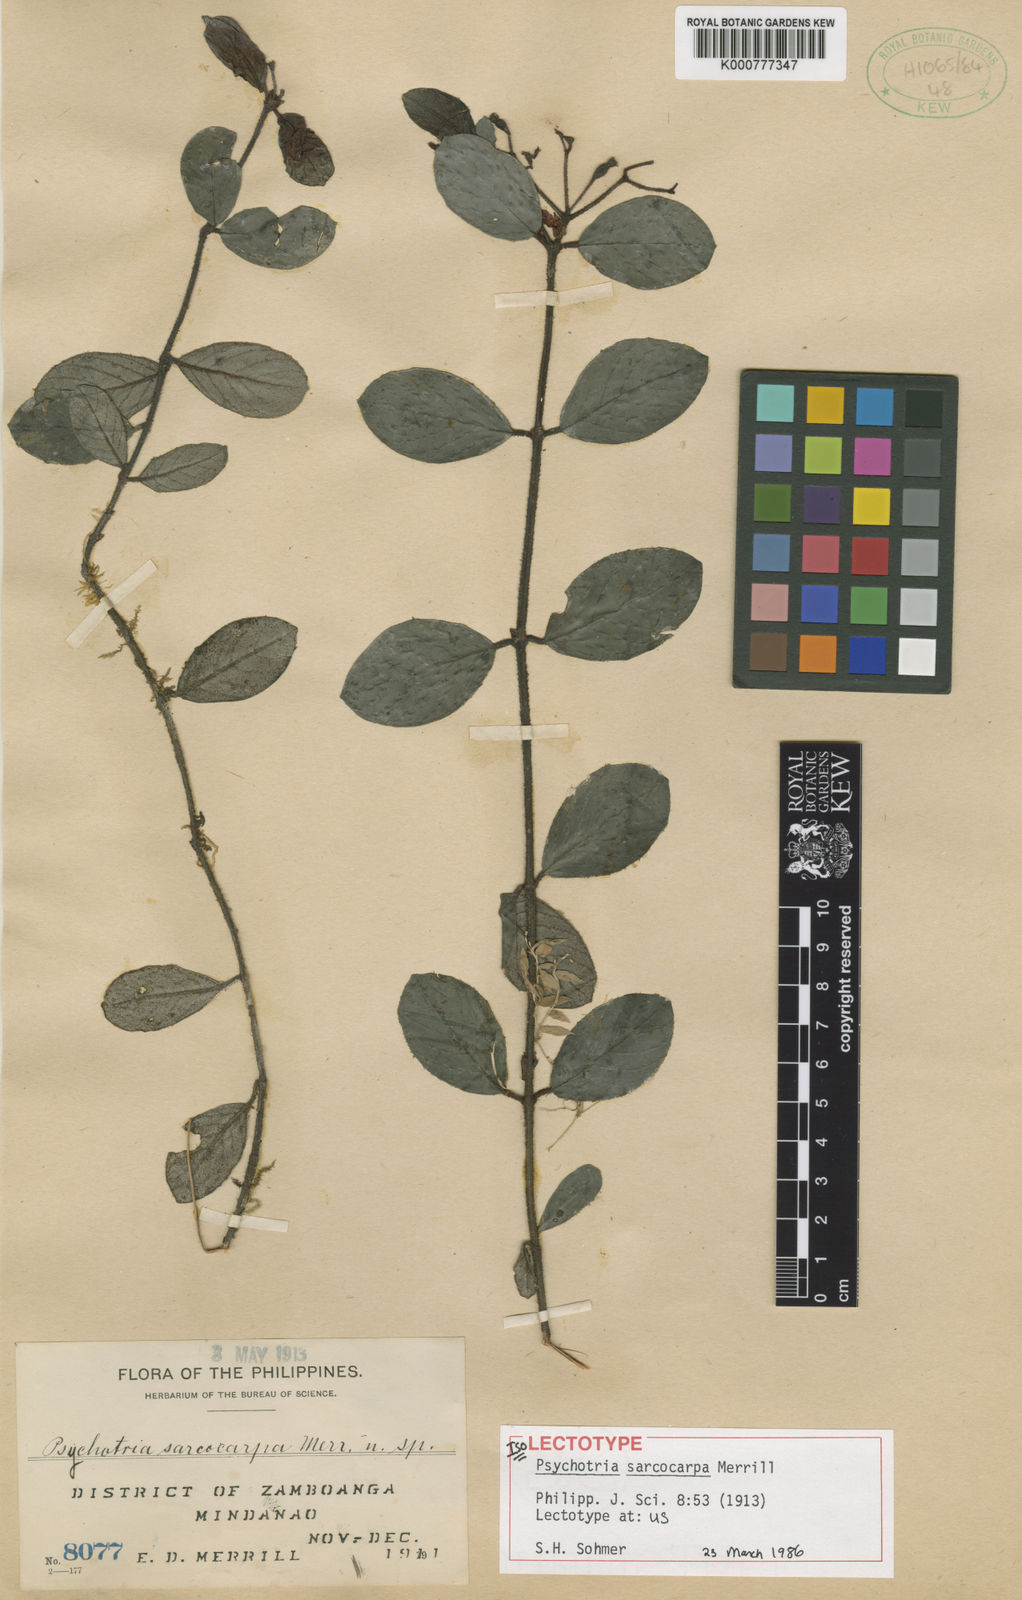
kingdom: Plantae
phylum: Tracheophyta
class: Magnoliopsida
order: Gentianales
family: Rubiaceae
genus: Psychotria
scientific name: Psychotria sarcocarpa
